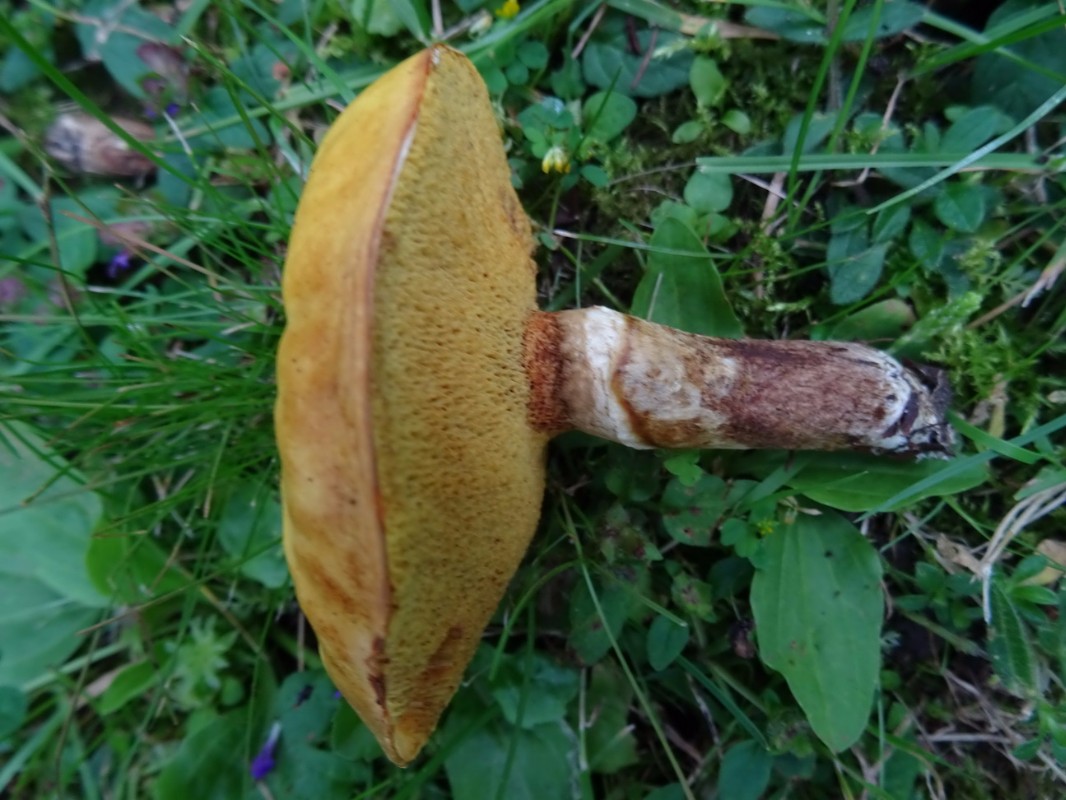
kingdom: Fungi
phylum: Basidiomycota
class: Agaricomycetes
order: Boletales
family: Suillaceae
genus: Suillus
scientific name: Suillus grevillei
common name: lærke-slimrørhat
